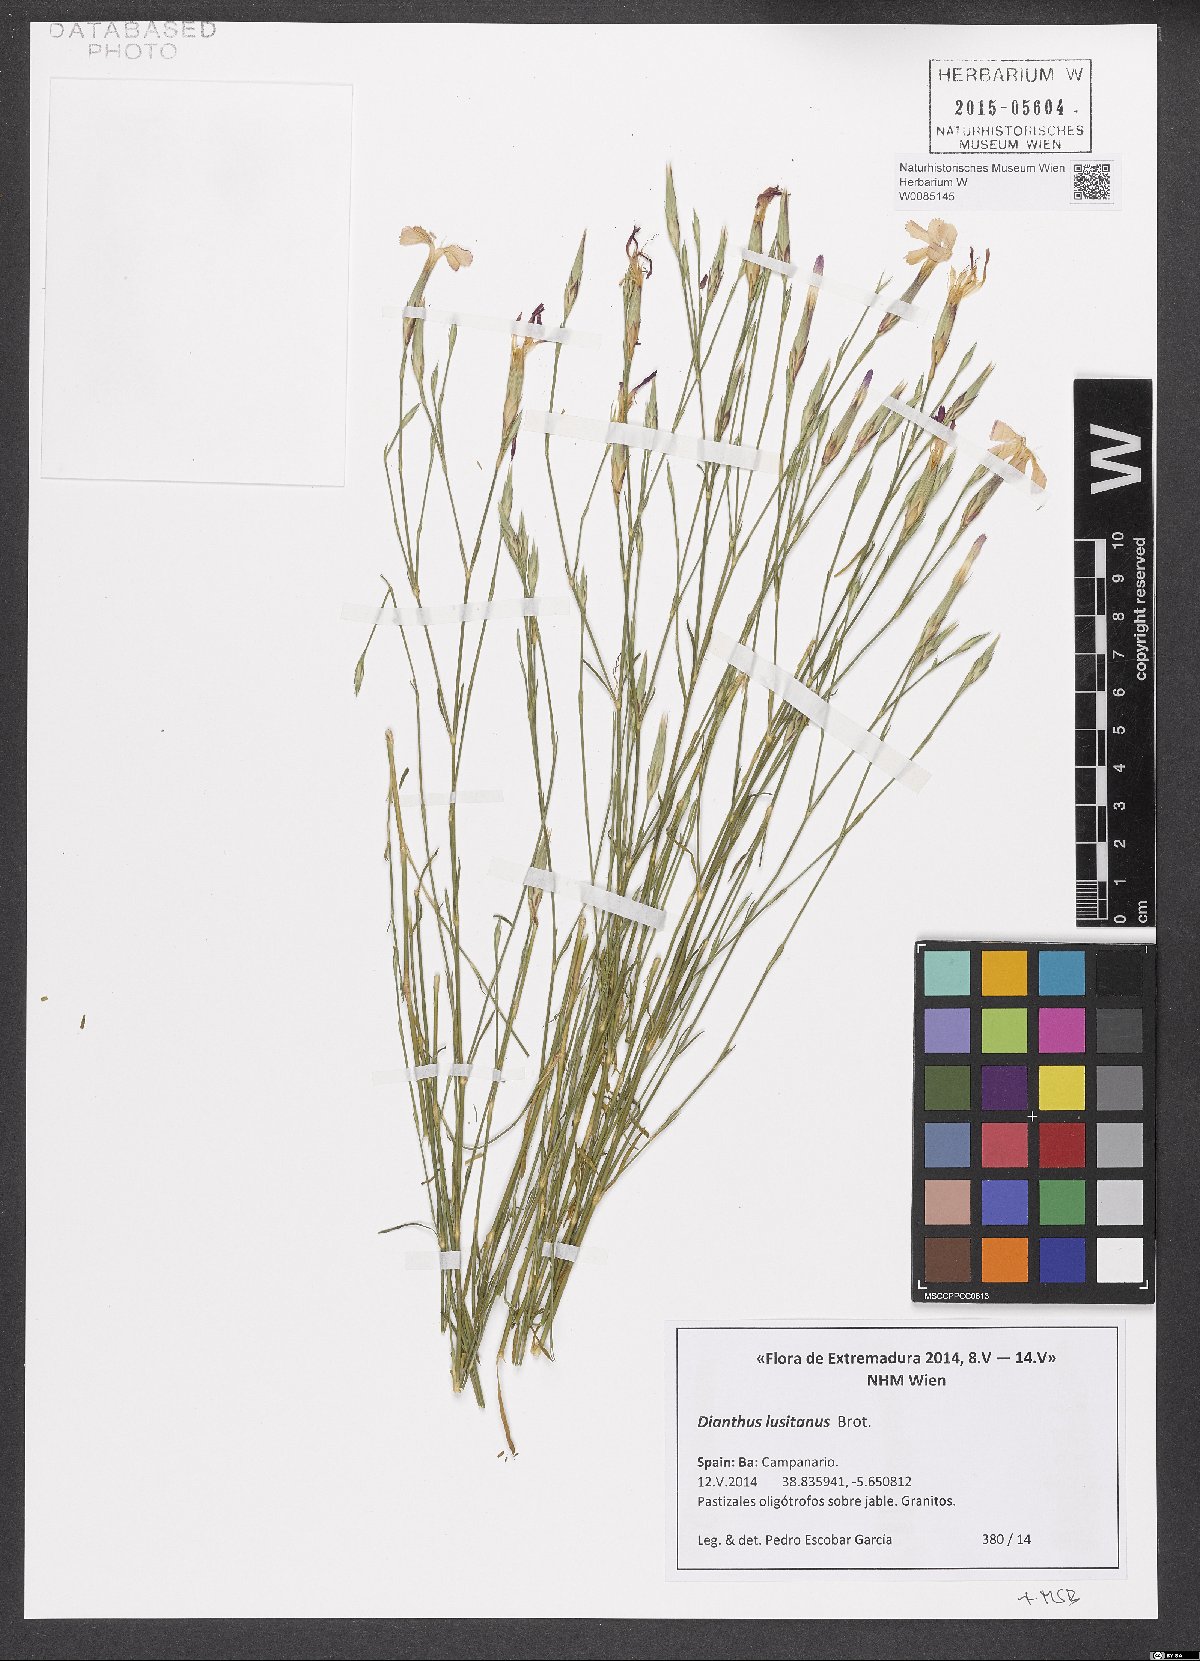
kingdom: Plantae
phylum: Tracheophyta
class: Magnoliopsida
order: Caryophyllales
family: Caryophyllaceae
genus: Dianthus
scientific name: Dianthus lusitanus
